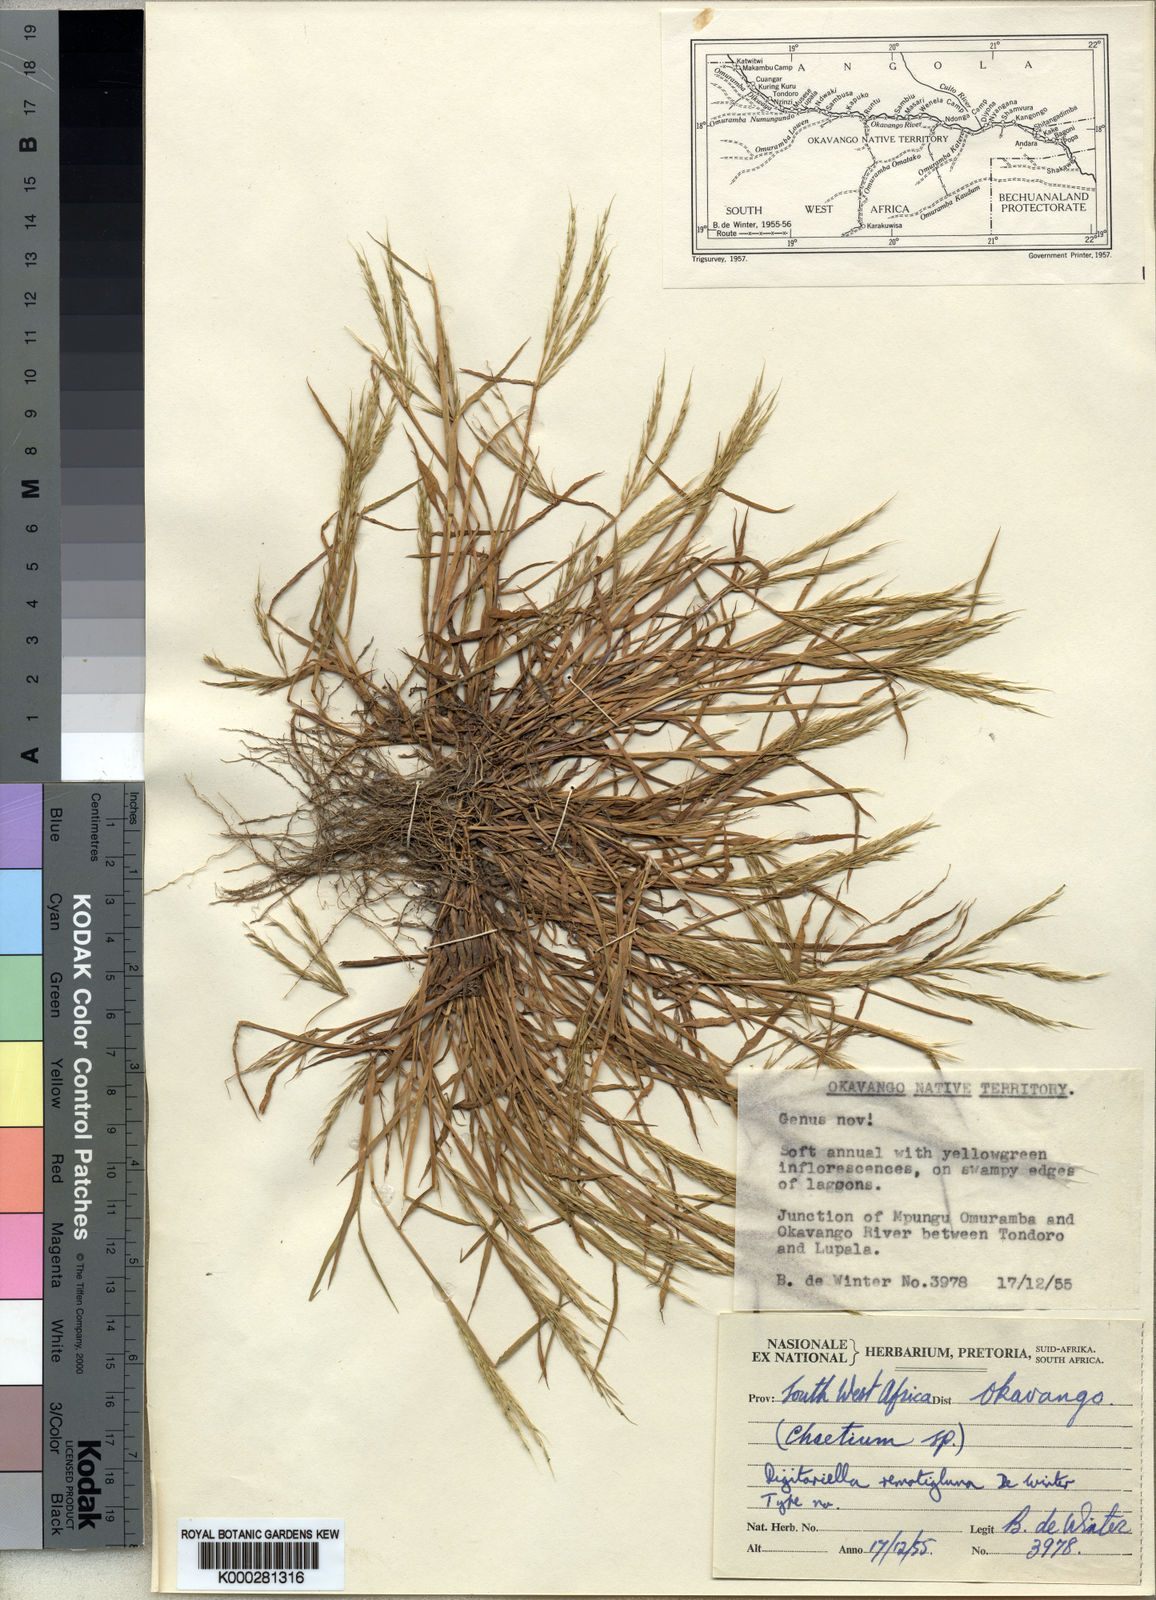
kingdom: Plantae
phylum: Tracheophyta
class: Liliopsida
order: Poales
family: Poaceae
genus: Digitaria
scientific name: Digitaria remotigluma
